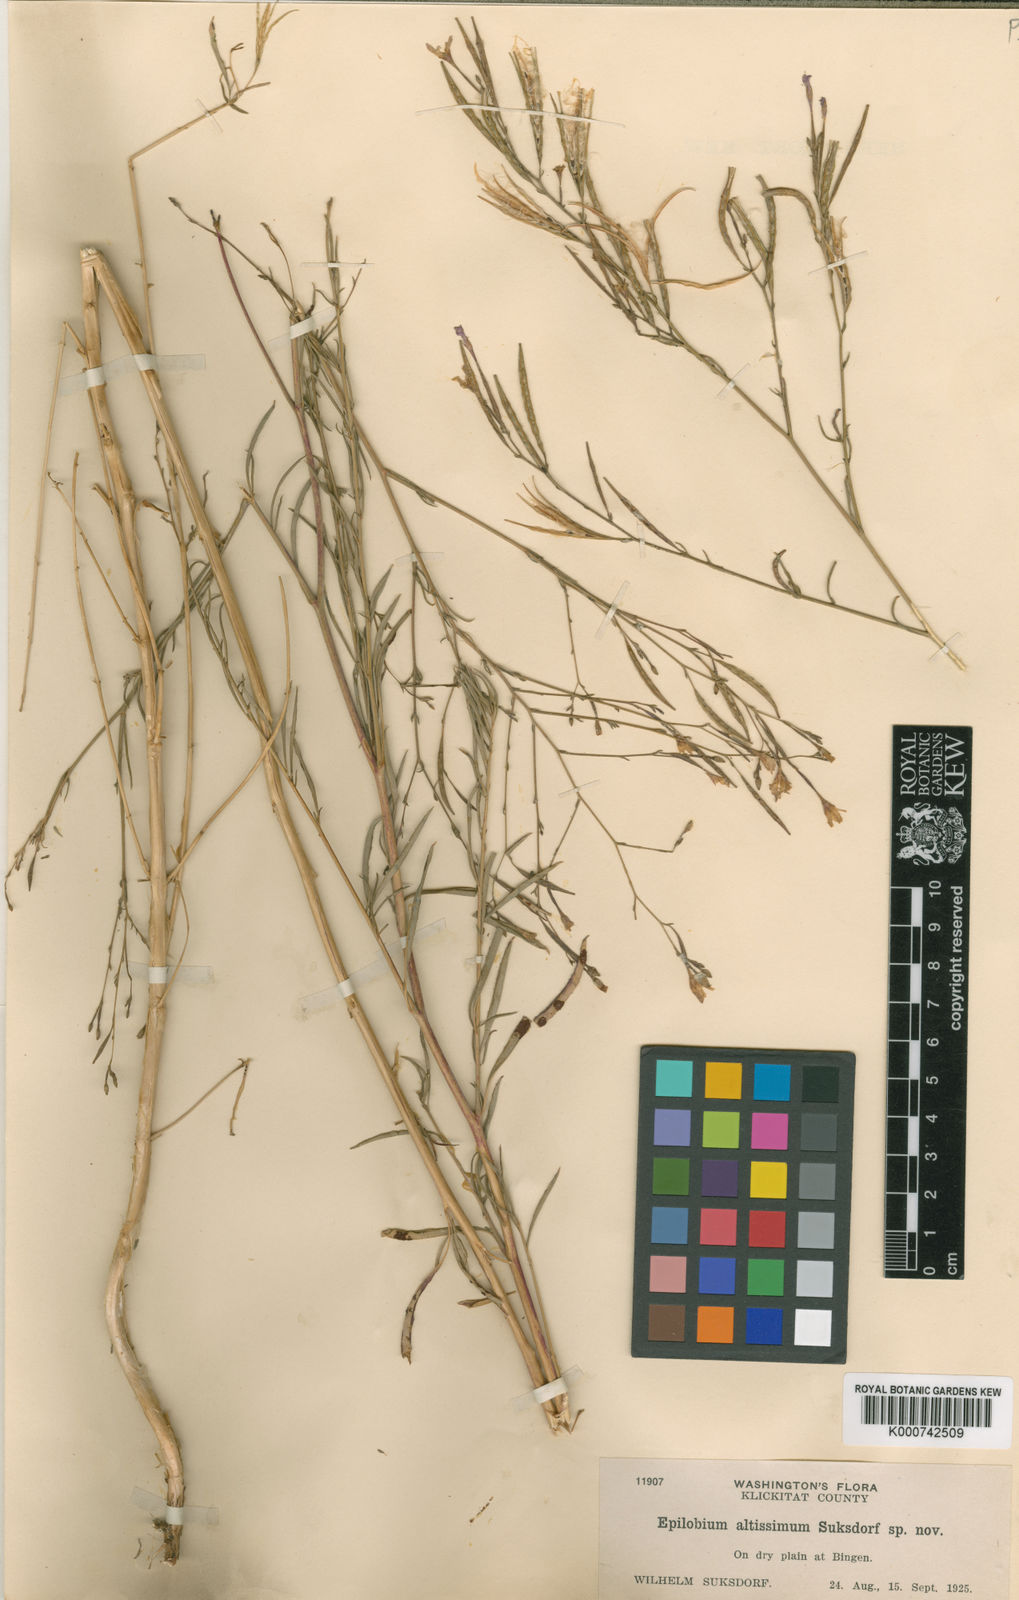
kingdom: Plantae
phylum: Tracheophyta
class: Magnoliopsida
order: Myrtales
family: Onagraceae
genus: Epilobium
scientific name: Epilobium brachycarpum
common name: Annual willowherb
